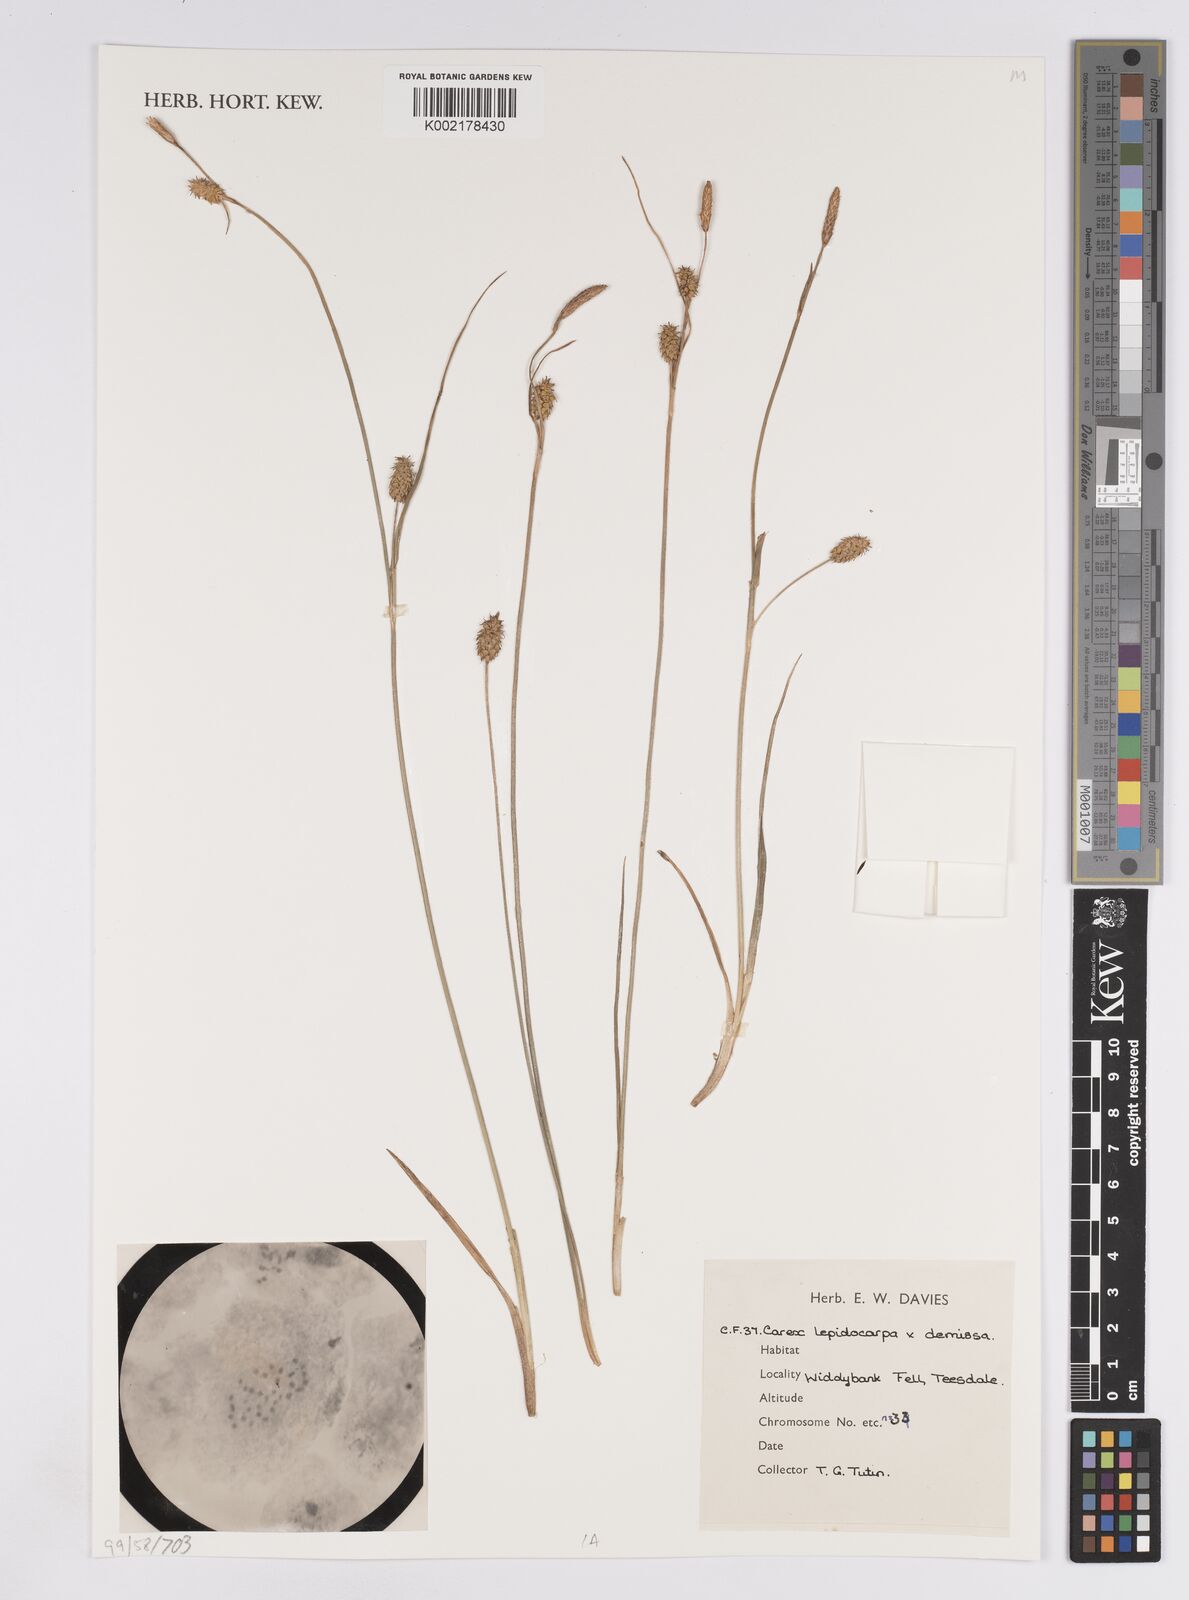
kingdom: Plantae
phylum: Tracheophyta
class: Liliopsida
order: Poales
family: Cyperaceae
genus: Carex
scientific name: Carex lepidocarpa
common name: Long-stalked yellow-sedge
